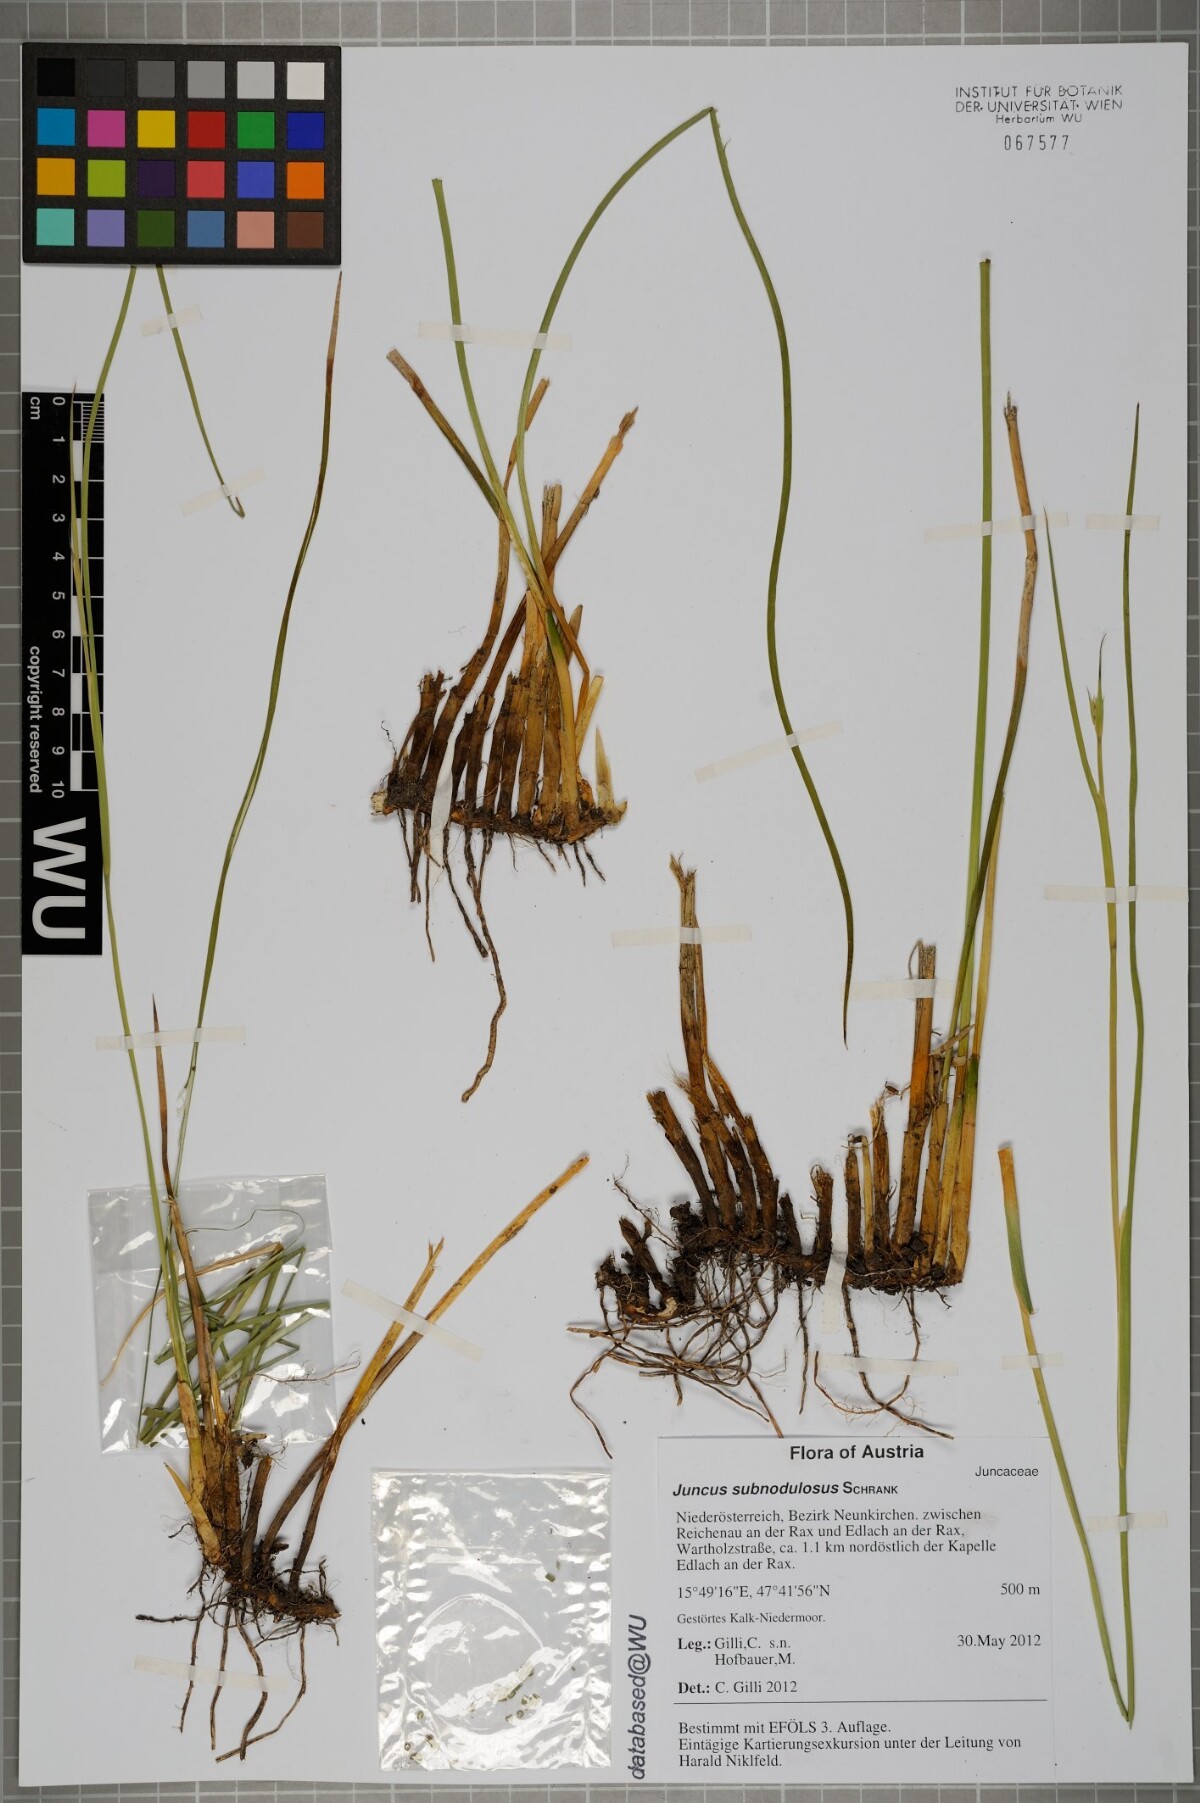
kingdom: Plantae
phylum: Tracheophyta
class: Liliopsida
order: Poales
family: Juncaceae
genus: Juncus
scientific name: Juncus subnodulosus
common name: Blunt-flowered rush
